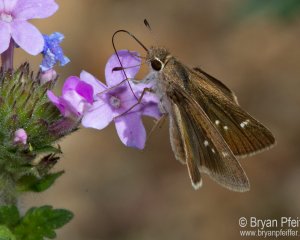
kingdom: Animalia
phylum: Arthropoda
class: Insecta
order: Lepidoptera
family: Hesperiidae
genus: Lerodea
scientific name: Lerodea eufala
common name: Eufala Skipper
